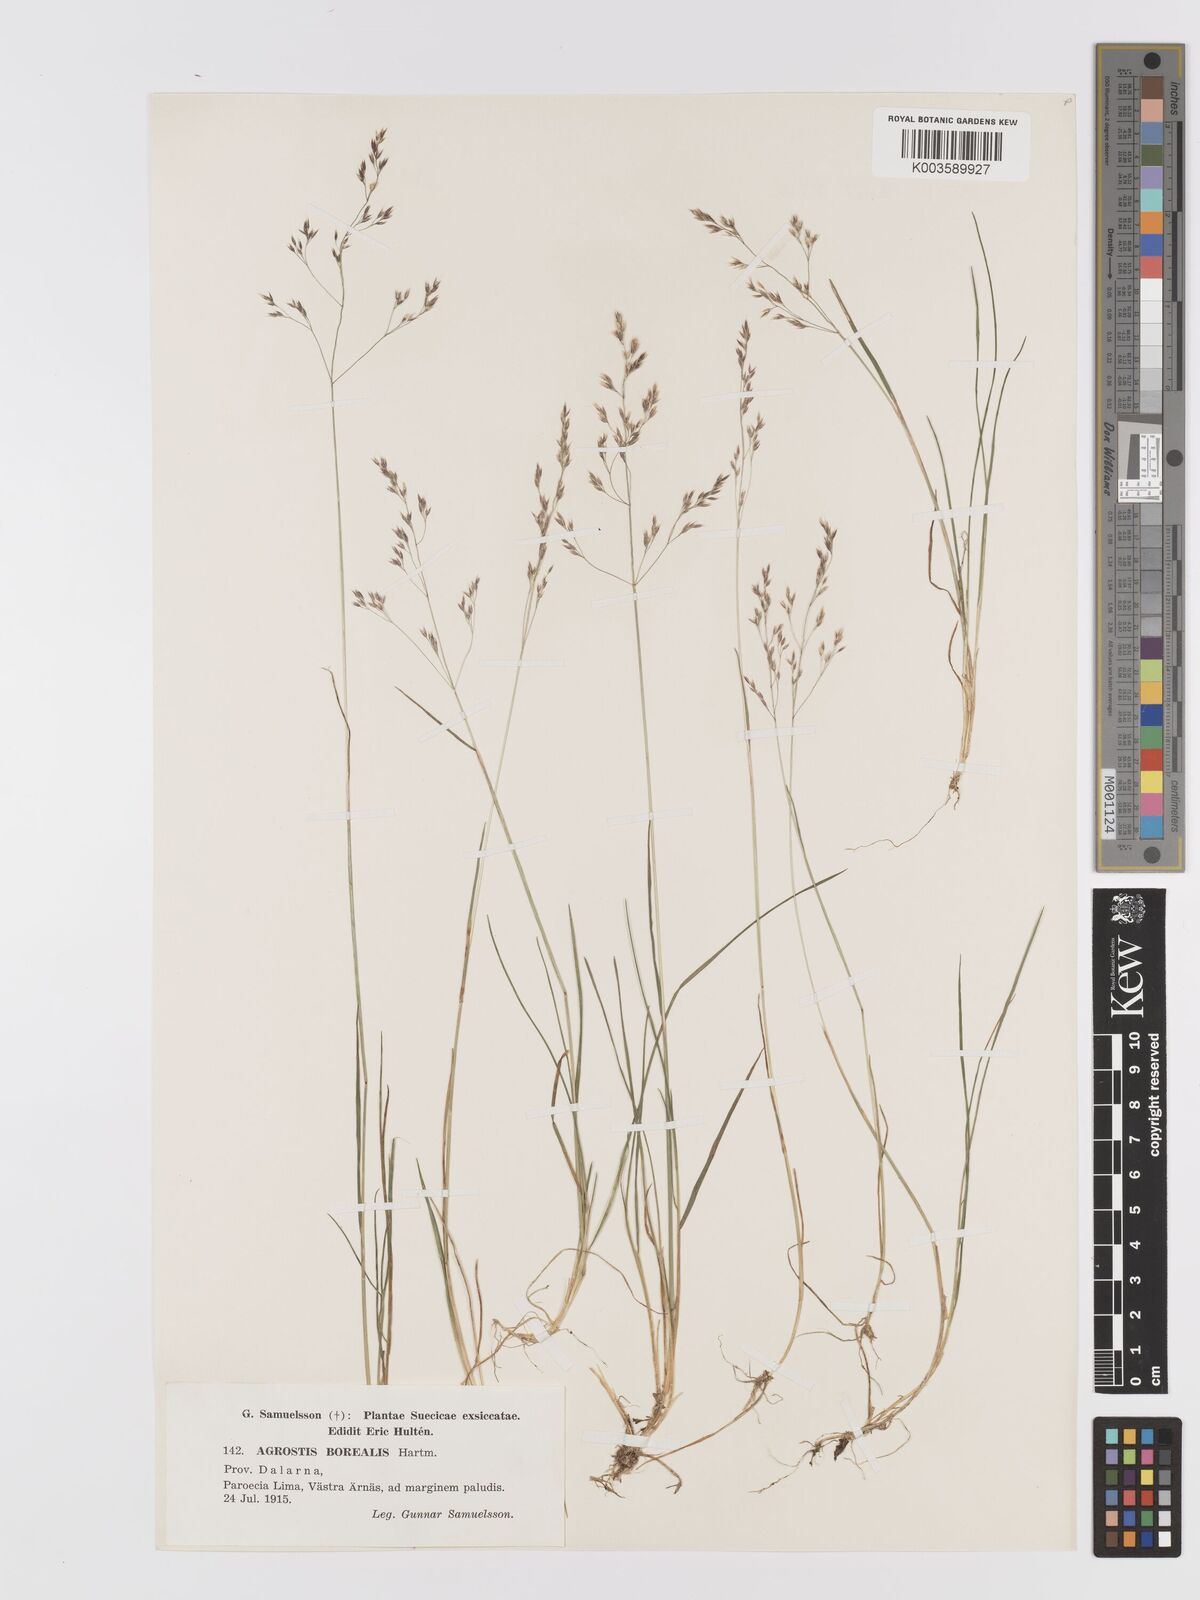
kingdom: Plantae
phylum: Tracheophyta
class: Liliopsida
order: Poales
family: Poaceae
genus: Agrostis
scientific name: Agrostis mertensii
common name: Northern bent
